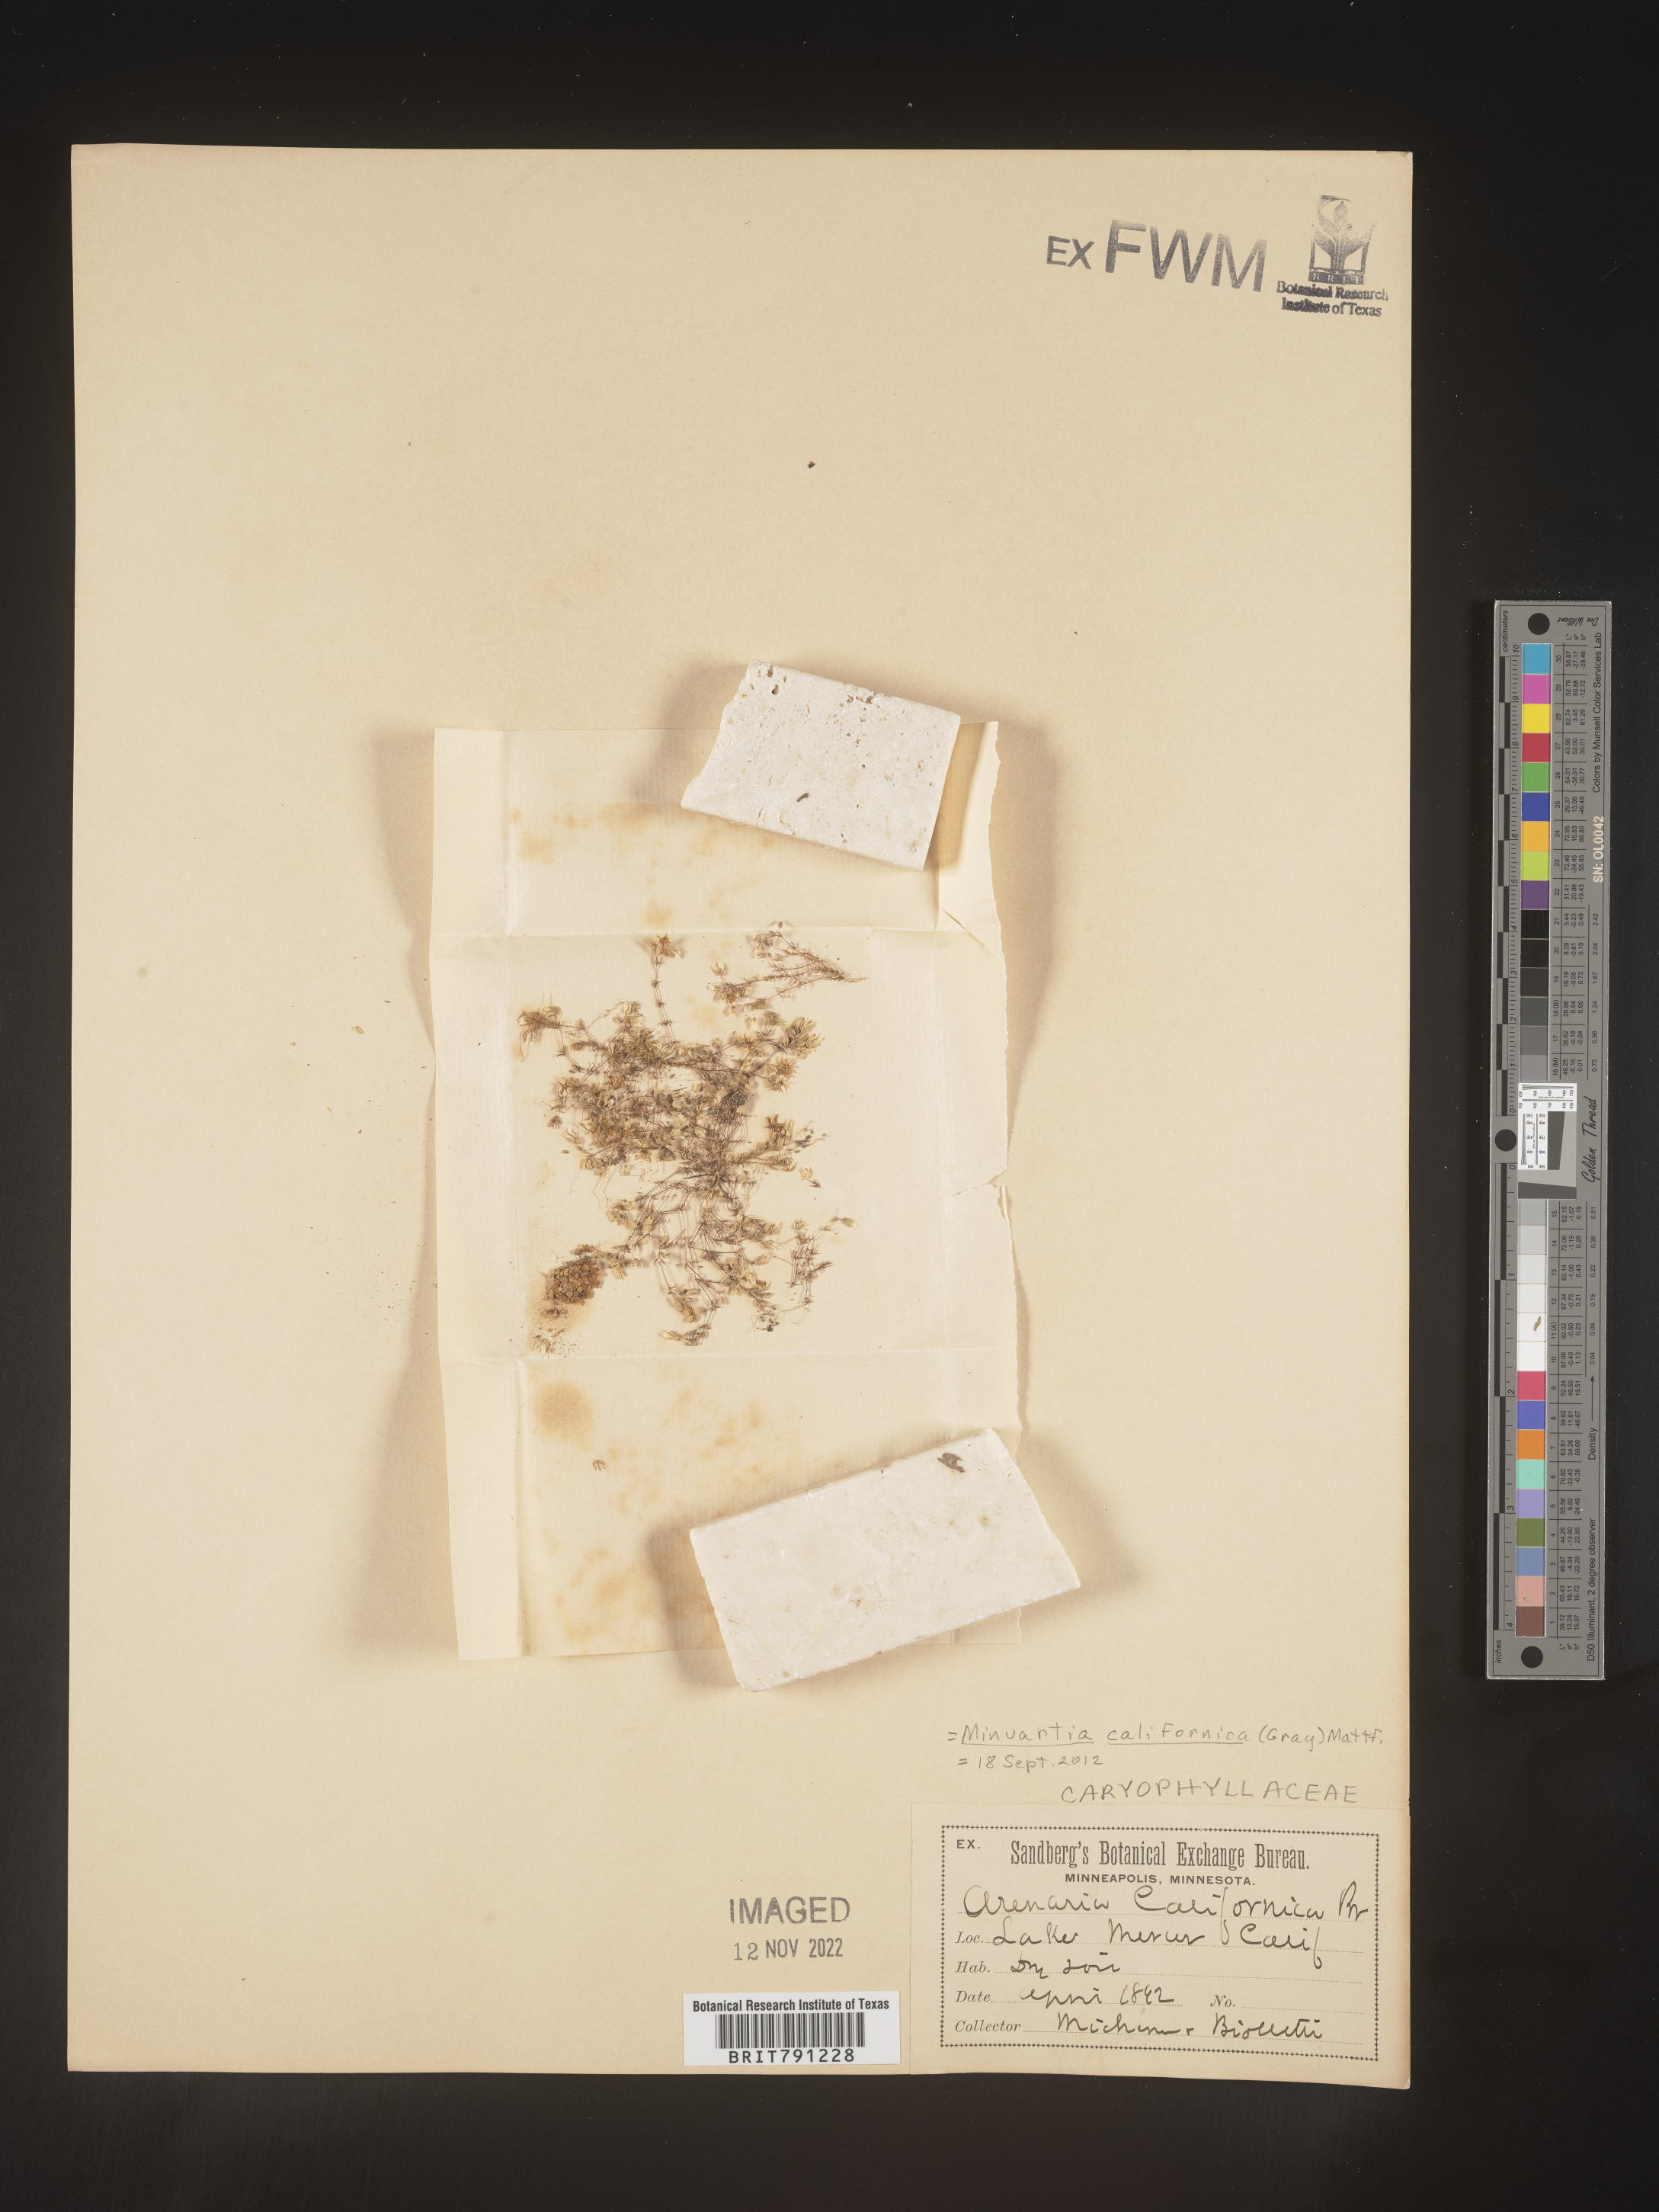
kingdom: Plantae
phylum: Tracheophyta
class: Magnoliopsida
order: Caryophyllales
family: Caryophyllaceae
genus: Sabulina
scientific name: Sabulina californica
